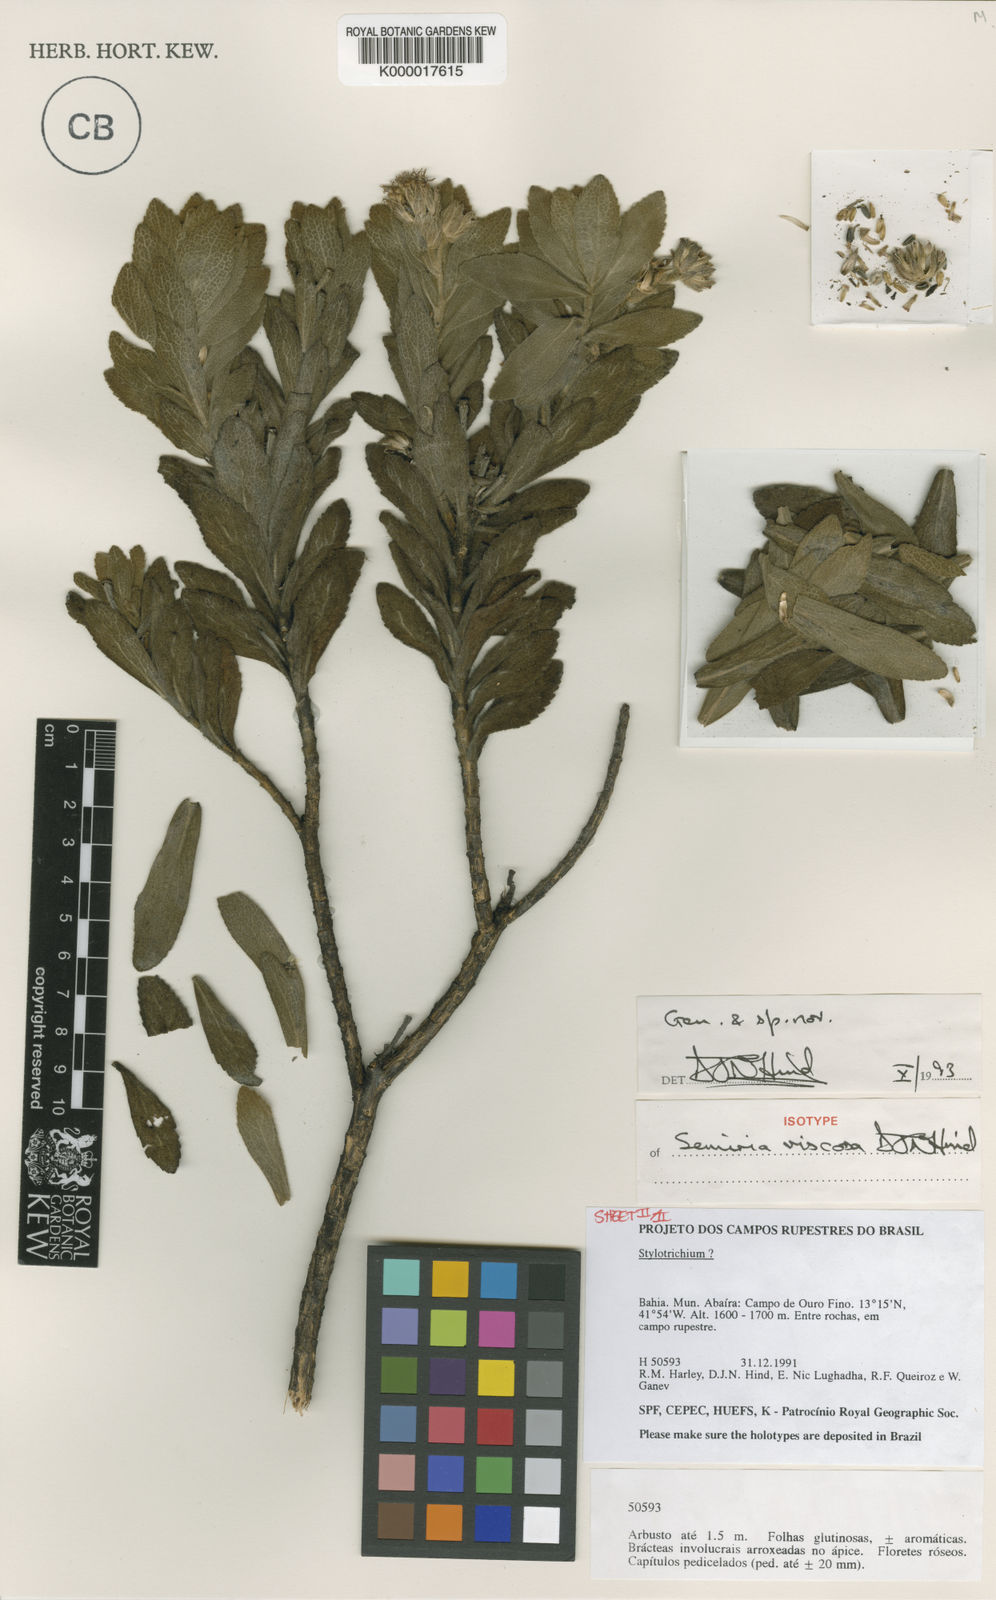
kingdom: Plantae
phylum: Tracheophyta
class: Magnoliopsida
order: Asterales
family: Asteraceae
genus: Semiria
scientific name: Semiria viscosa
